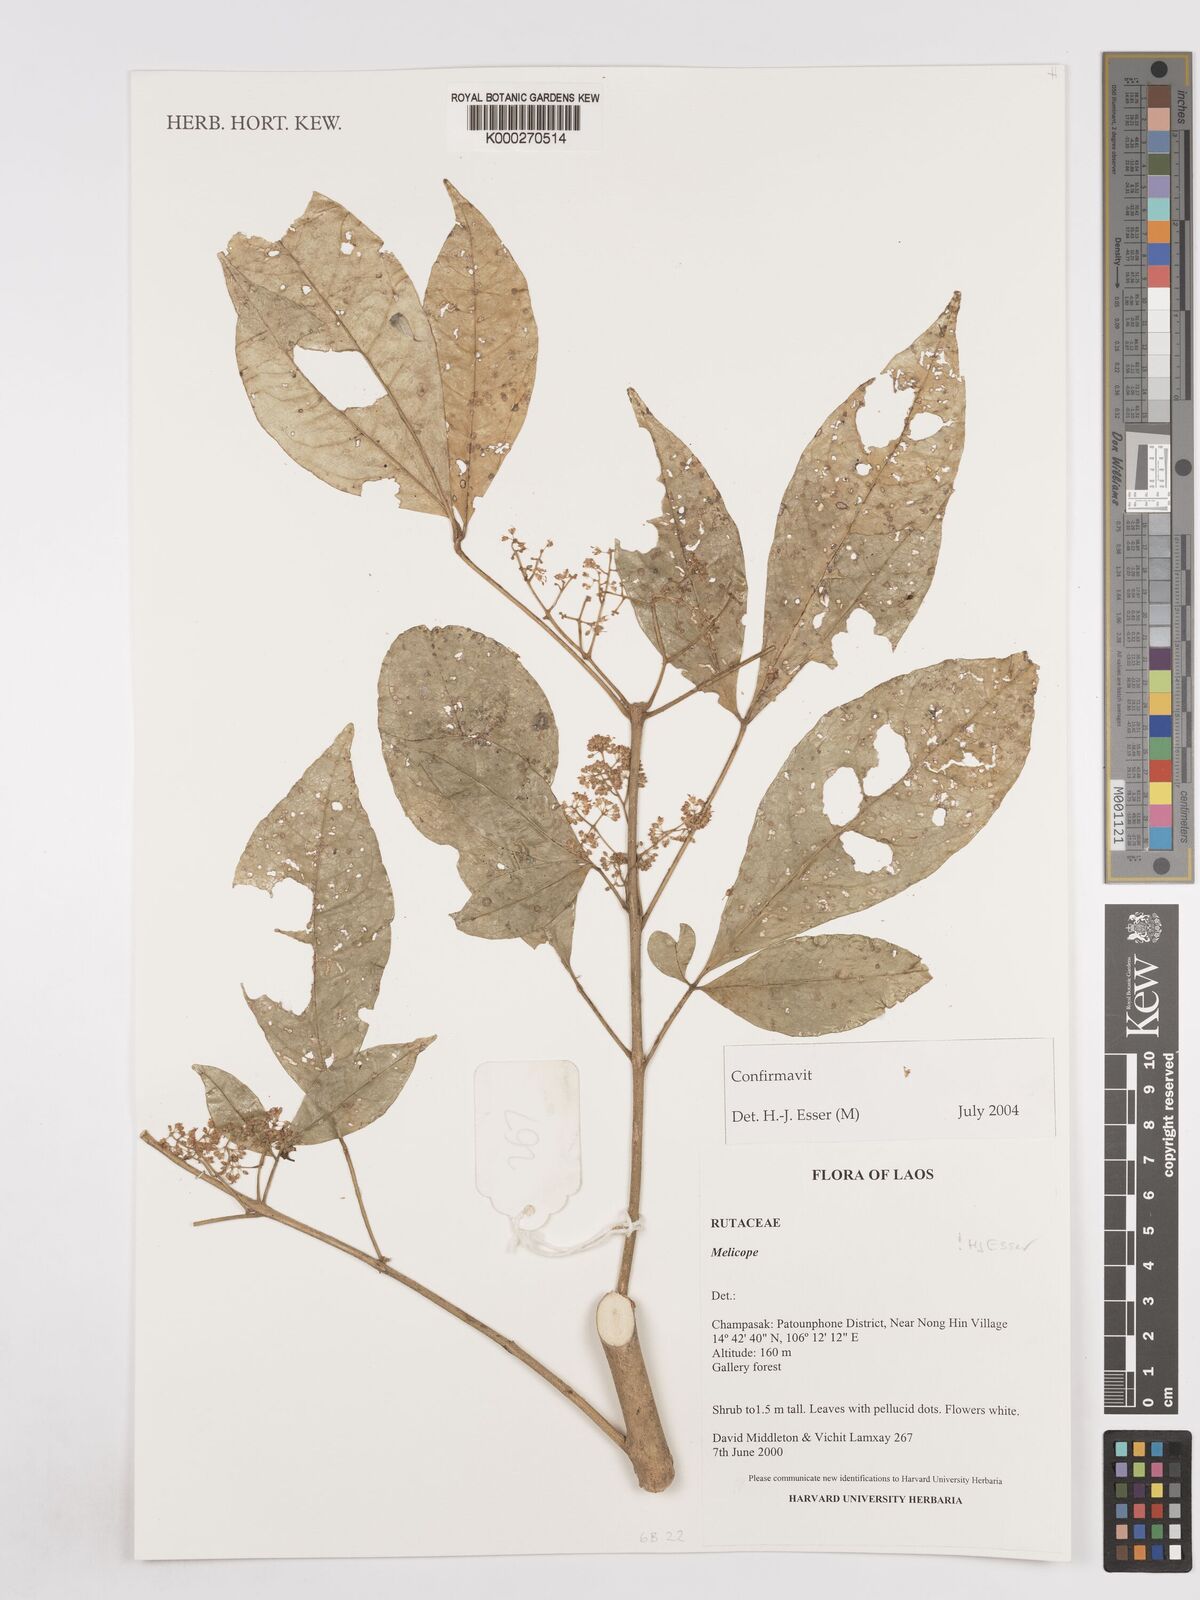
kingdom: Plantae
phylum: Tracheophyta
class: Magnoliopsida
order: Sapindales
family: Rutaceae
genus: Melicope
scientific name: Melicope
